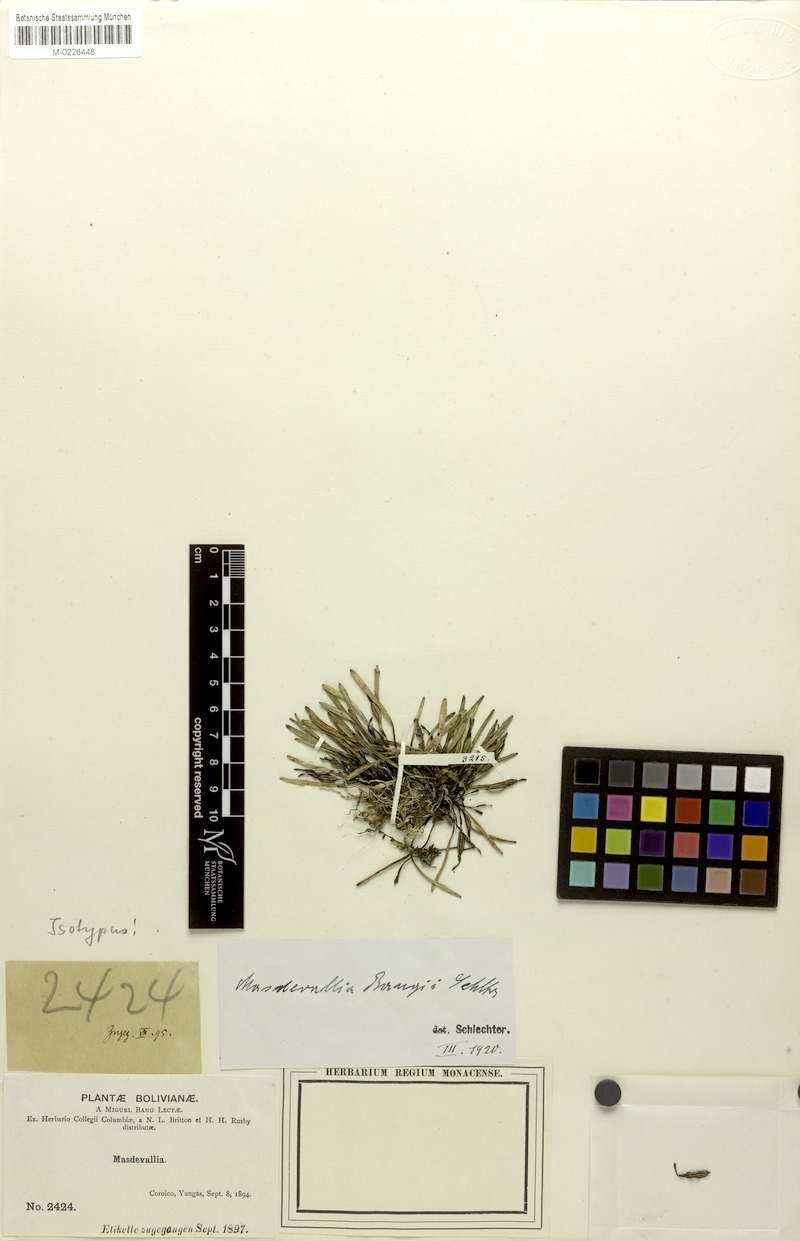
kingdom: Plantae
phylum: Tracheophyta
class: Liliopsida
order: Asparagales
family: Orchidaceae
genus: Masdevallia
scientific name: Masdevallia bangii
